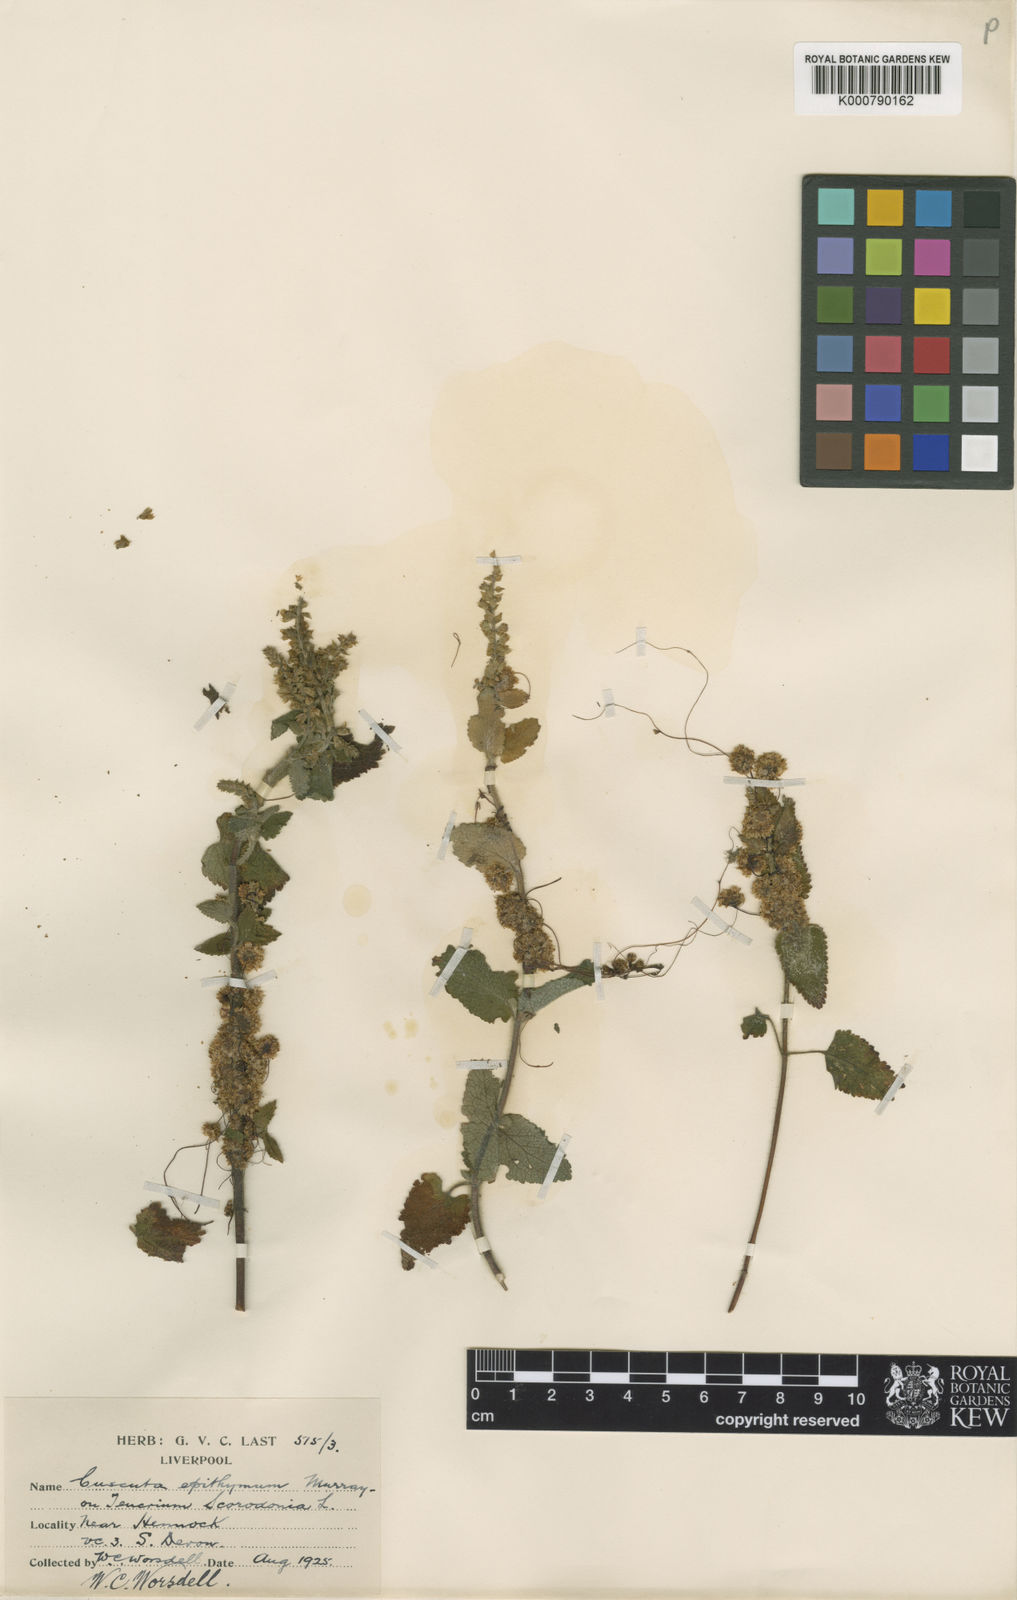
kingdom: Plantae
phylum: Tracheophyta
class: Magnoliopsida
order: Solanales
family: Convolvulaceae
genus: Cuscuta
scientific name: Cuscuta epithymum
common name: Clover dodder
